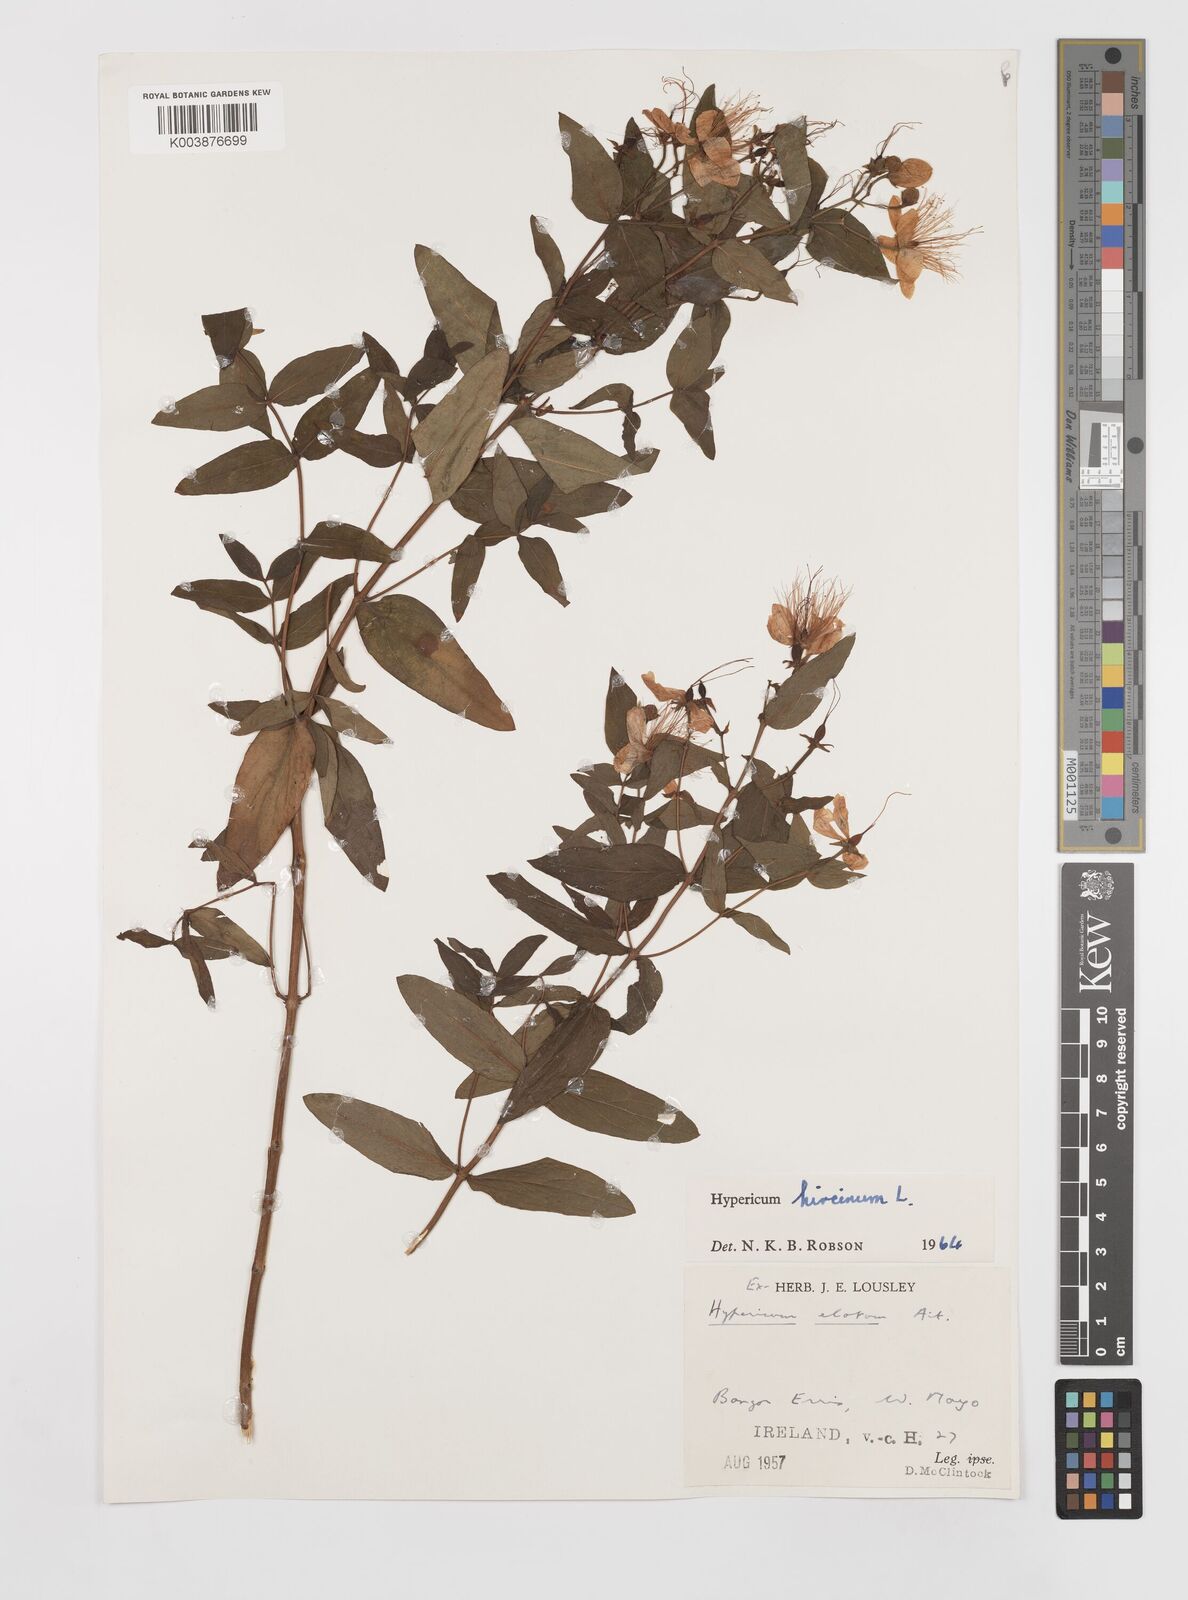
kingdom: Plantae
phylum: Tracheophyta
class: Magnoliopsida
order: Malpighiales
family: Hypericaceae
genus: Hypericum
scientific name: Hypericum hircinum
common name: Stinking tutsan
